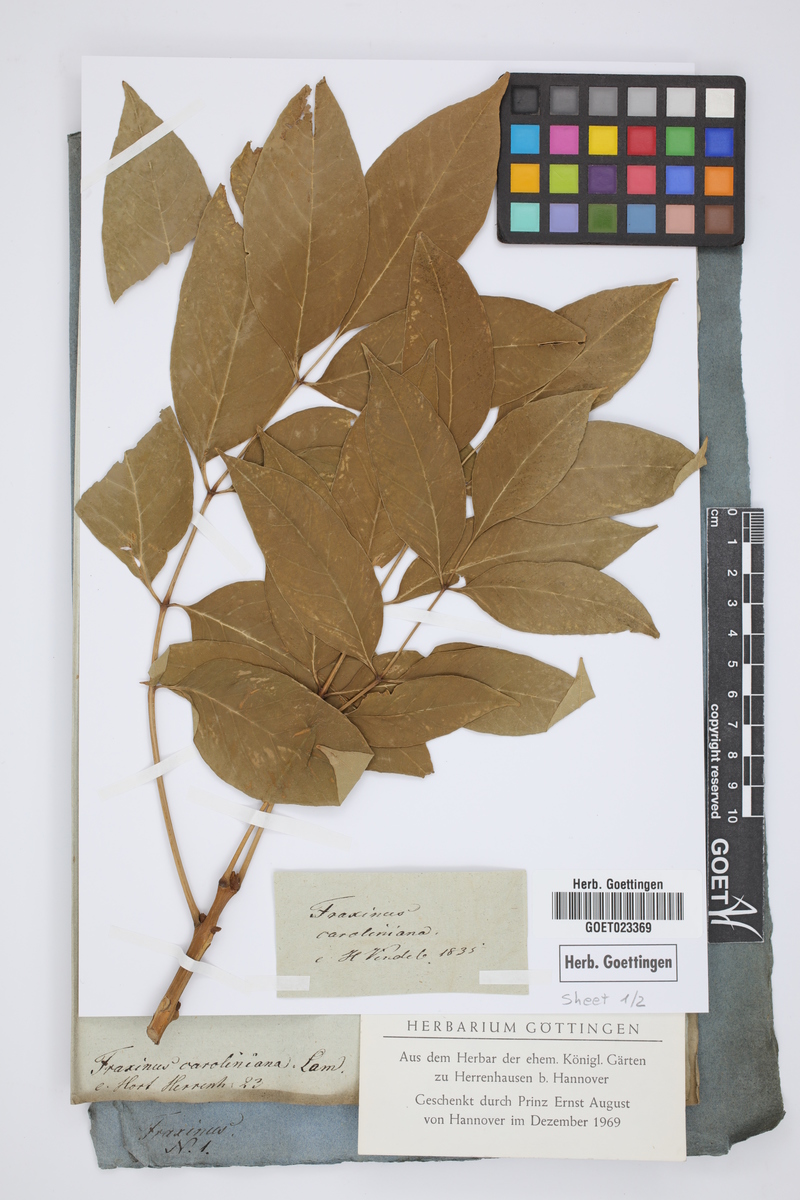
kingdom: Plantae
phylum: Tracheophyta
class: Magnoliopsida
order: Lamiales
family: Oleaceae
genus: Fraxinus
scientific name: Fraxinus caroliniana
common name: Carolina ash
